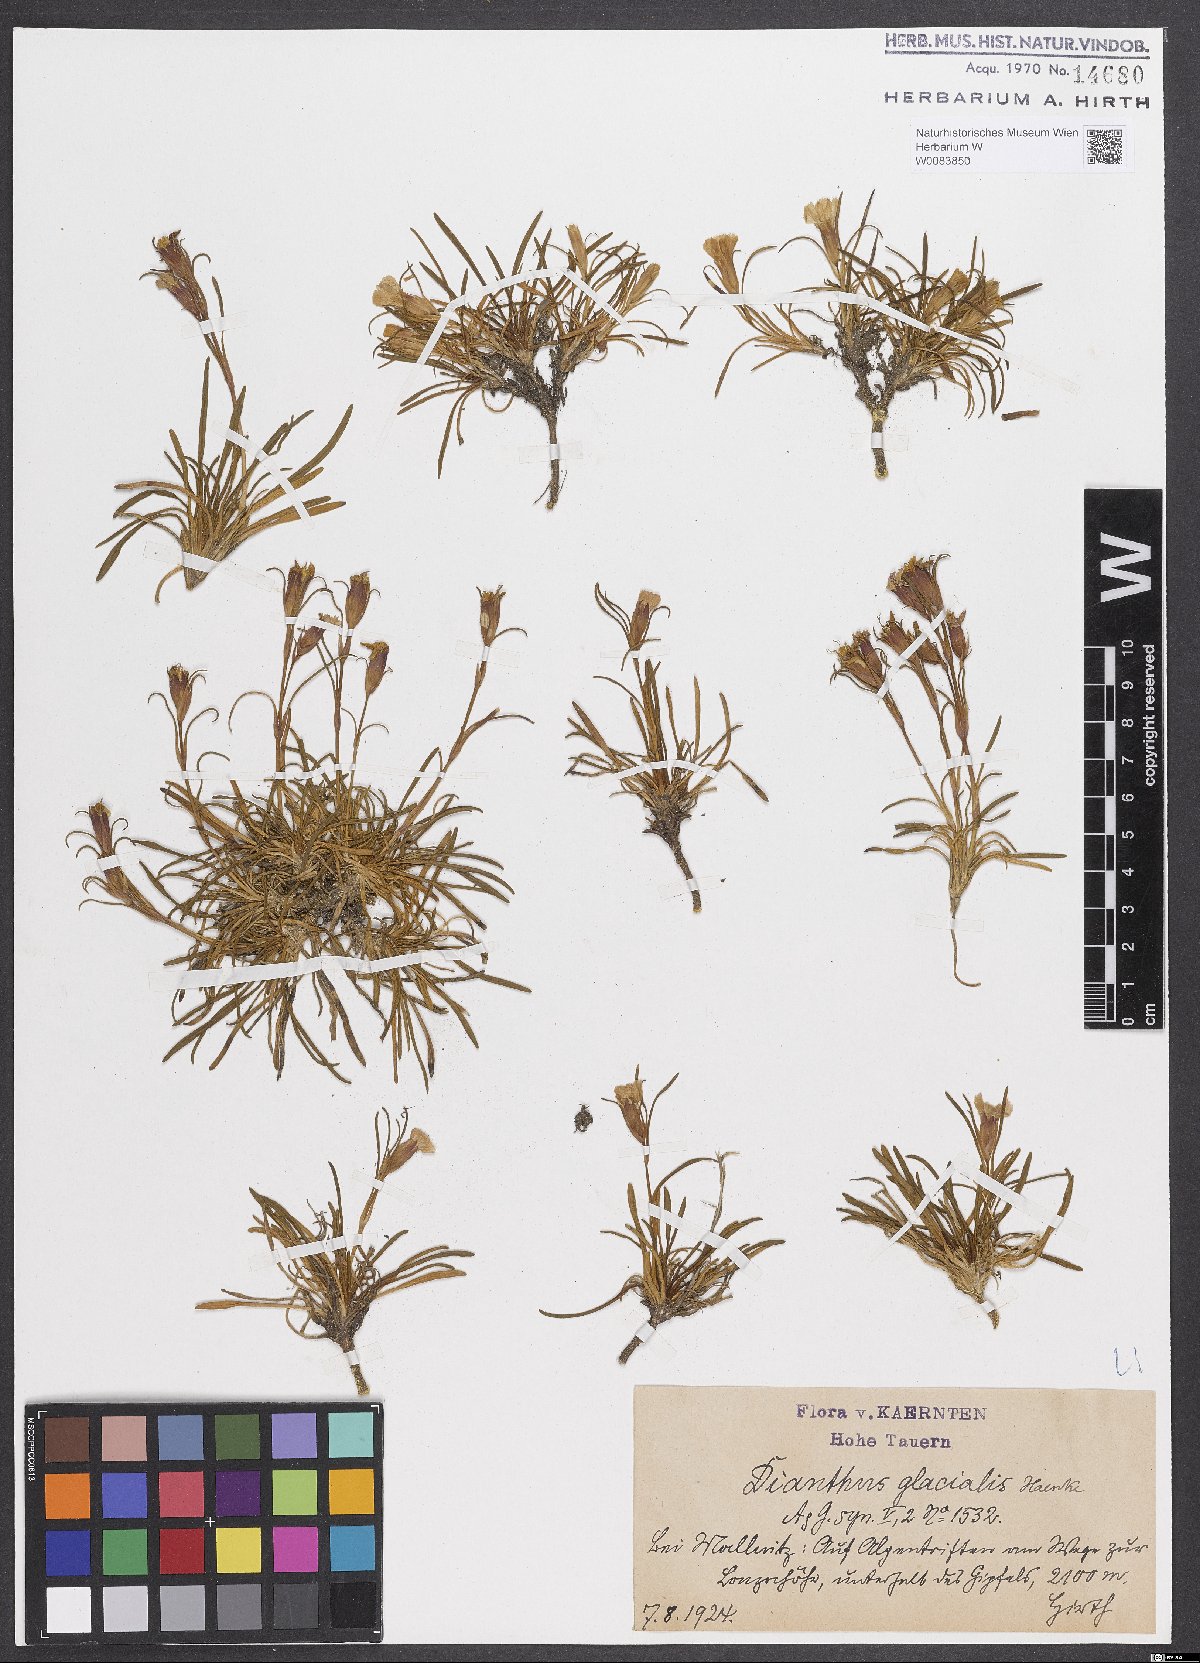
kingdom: Plantae
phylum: Tracheophyta
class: Magnoliopsida
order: Caryophyllales
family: Caryophyllaceae
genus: Dianthus
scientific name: Dianthus glacialis
